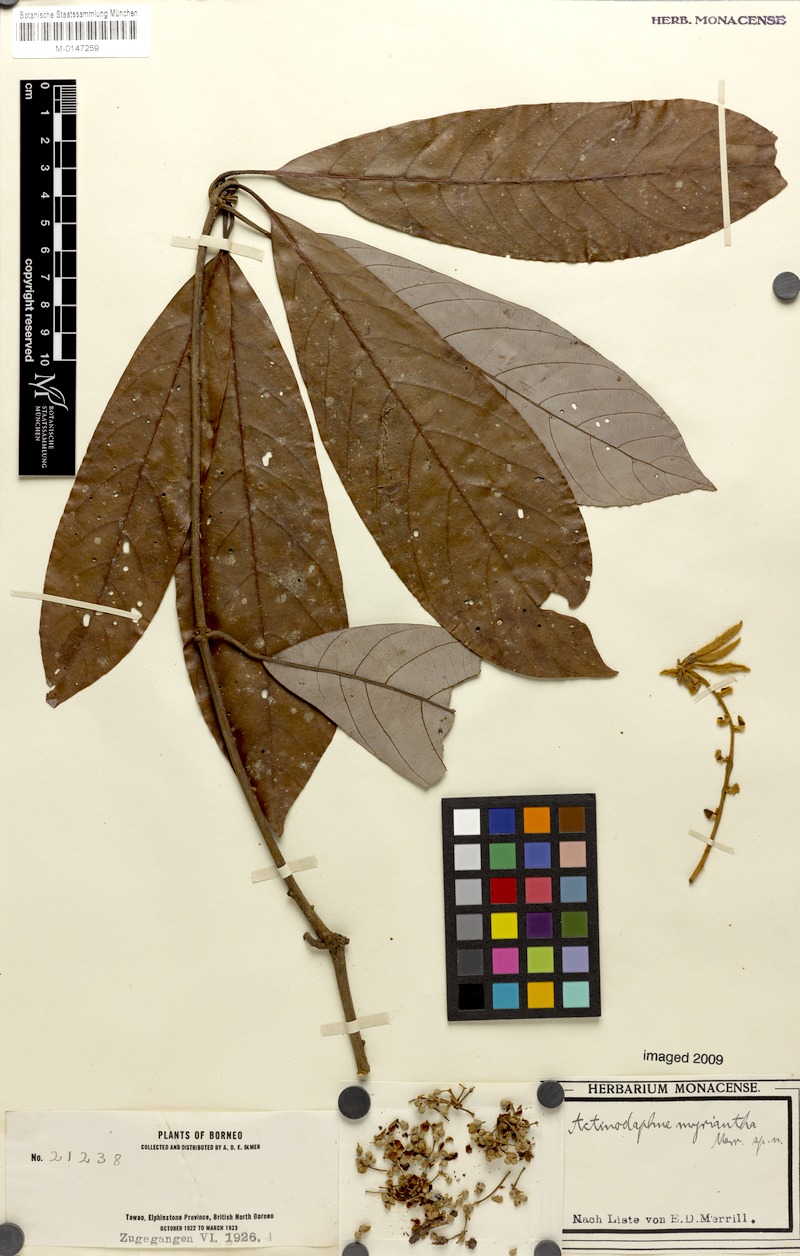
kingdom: Plantae
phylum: Tracheophyta
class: Magnoliopsida
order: Laurales
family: Lauraceae
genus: Actinodaphne
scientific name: Actinodaphne myriantha
